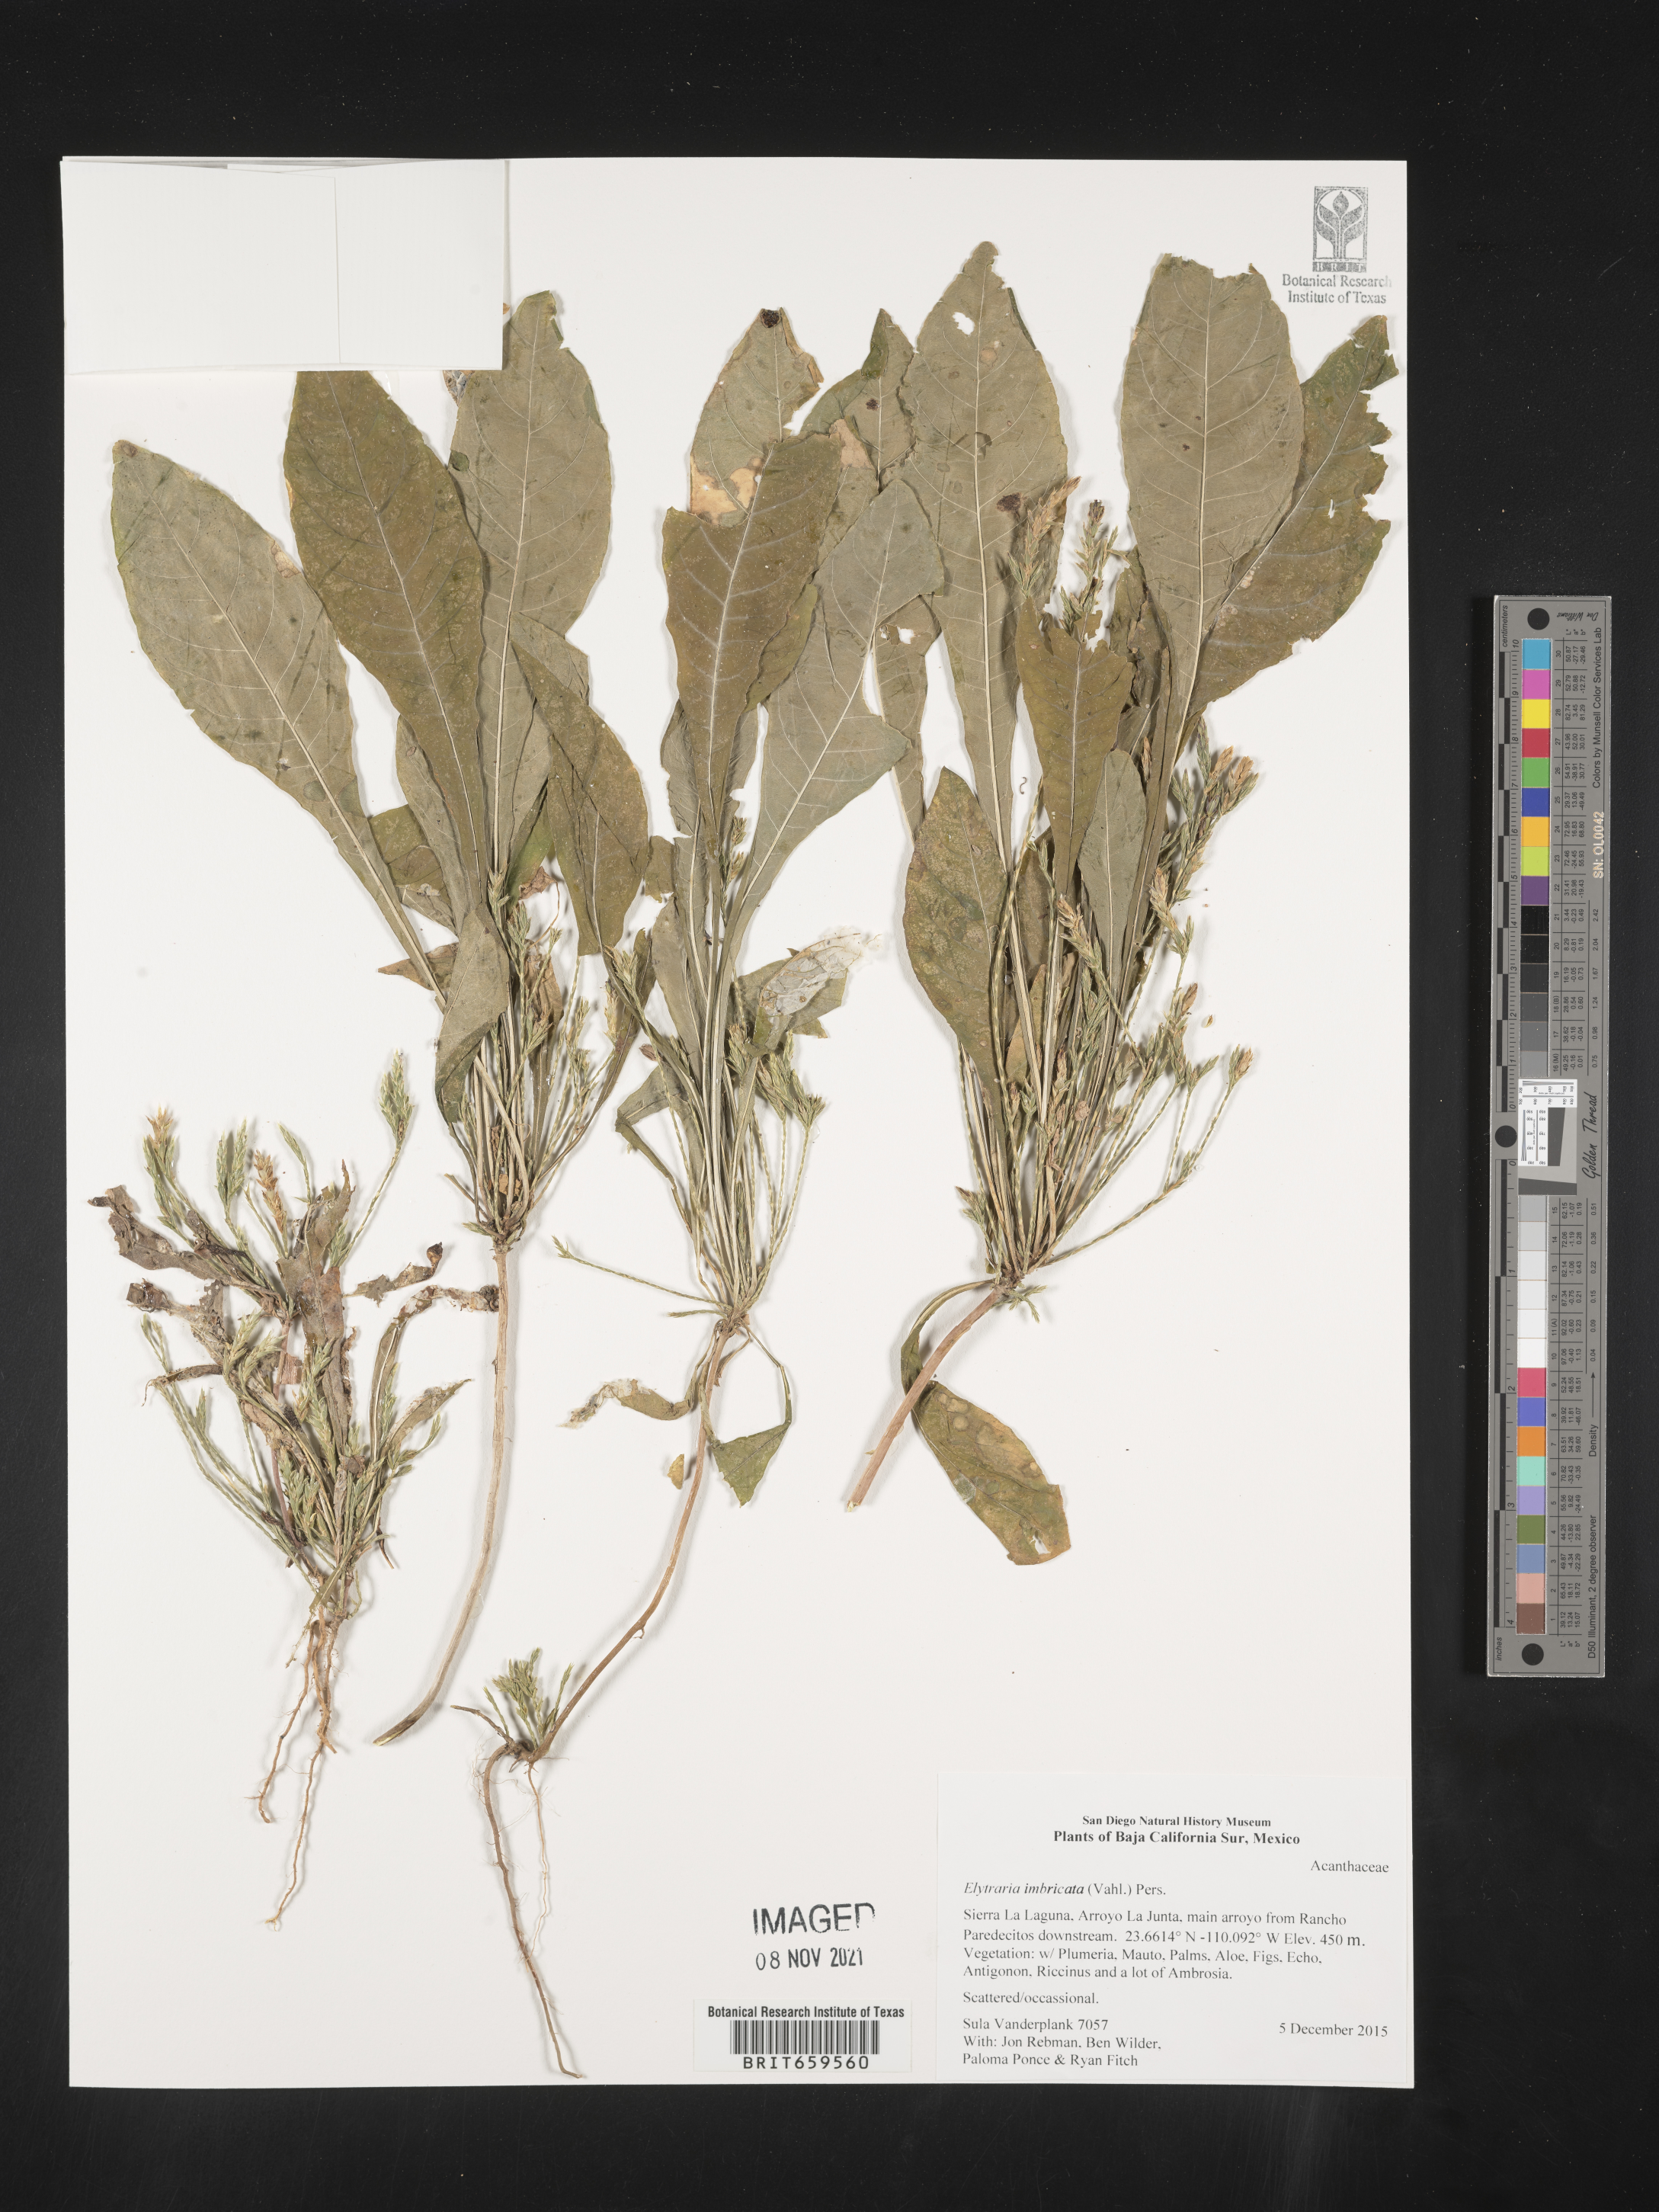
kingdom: Plantae
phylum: Tracheophyta
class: Magnoliopsida
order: Lamiales
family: Acanthaceae
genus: Elytraria
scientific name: Elytraria imbricata
